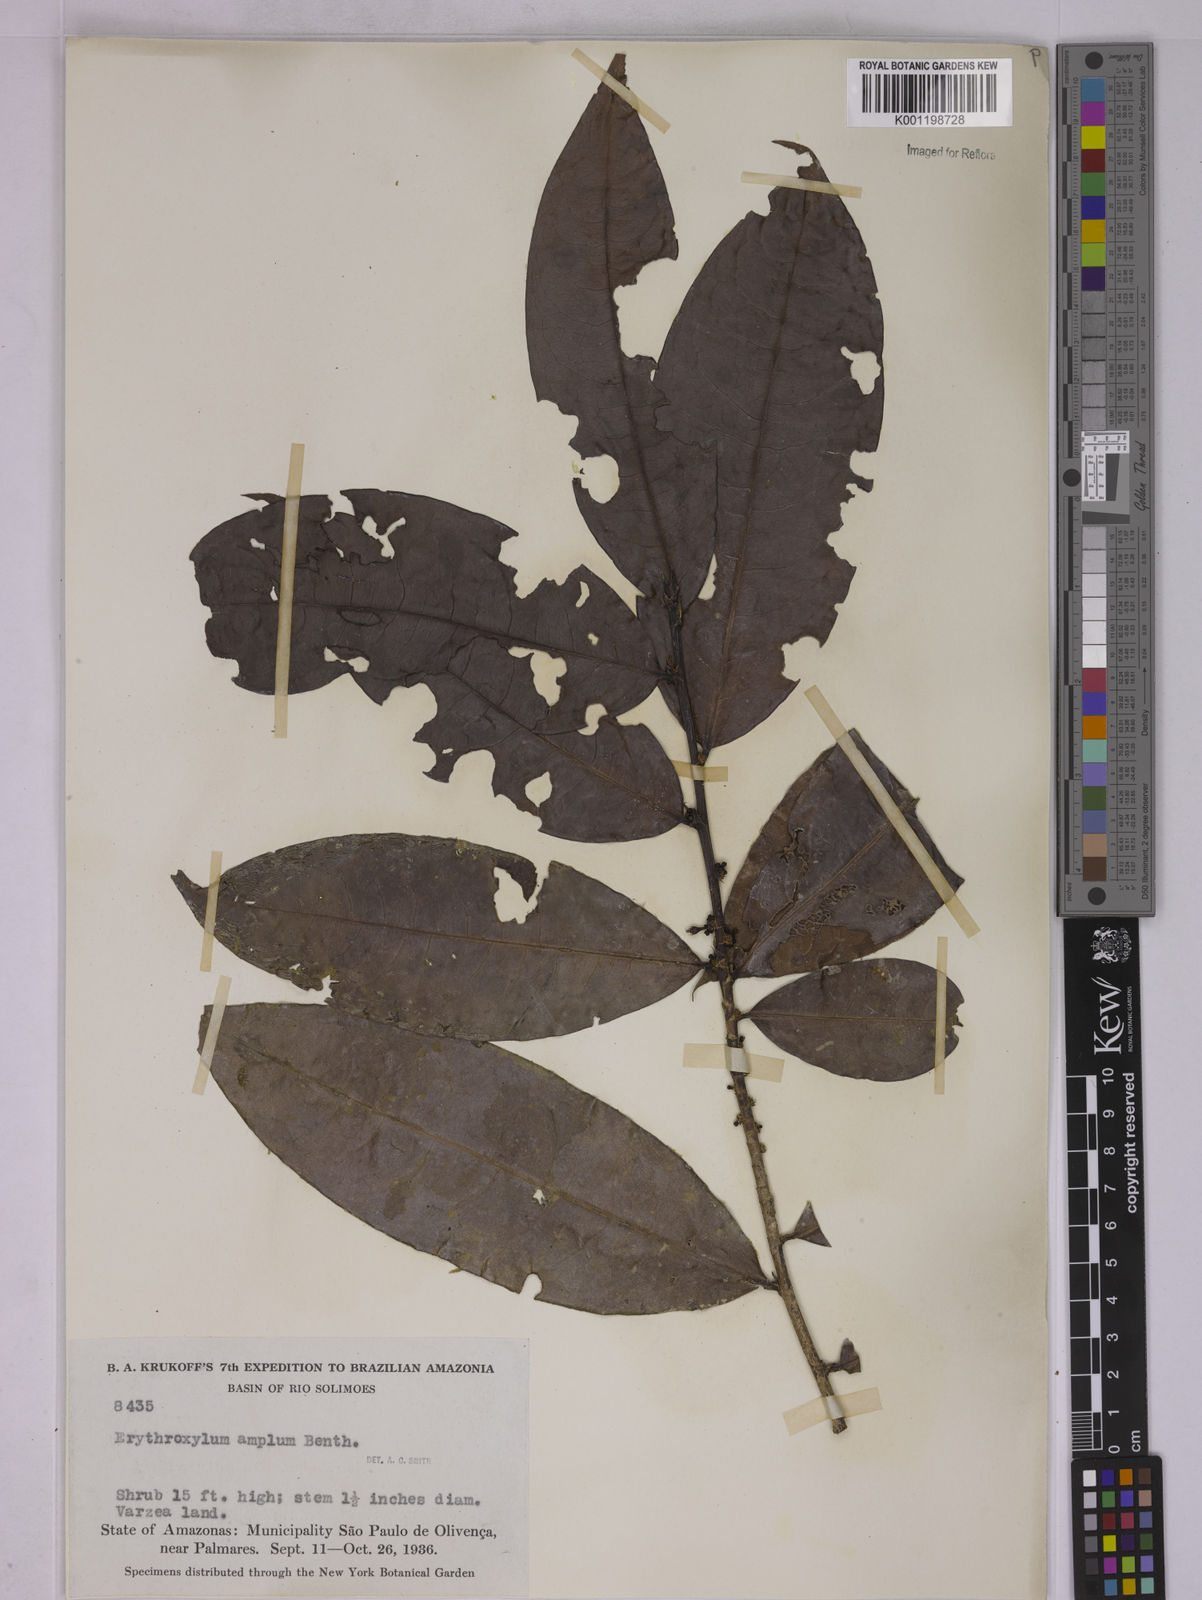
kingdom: Plantae
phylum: Tracheophyta
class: Magnoliopsida
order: Malpighiales
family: Erythroxylaceae
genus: Erythroxylum
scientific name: Erythroxylum amplum
